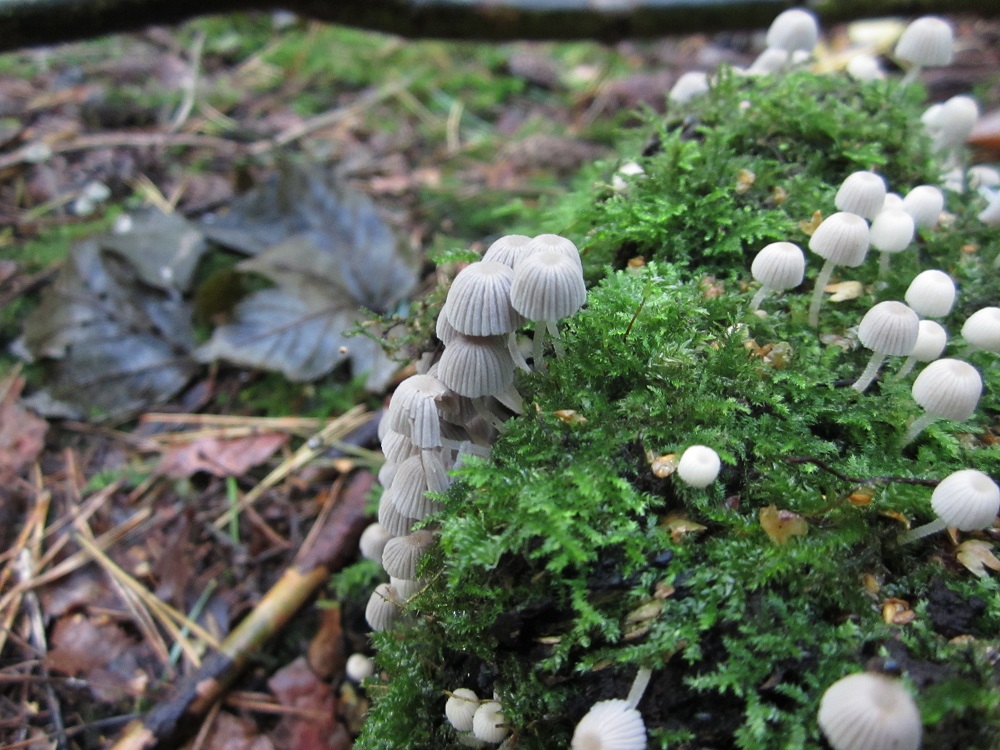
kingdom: Fungi
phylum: Basidiomycota
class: Agaricomycetes
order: Agaricales
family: Psathyrellaceae
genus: Coprinellus
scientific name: Coprinellus disseminatus
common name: bredsået blækhat
